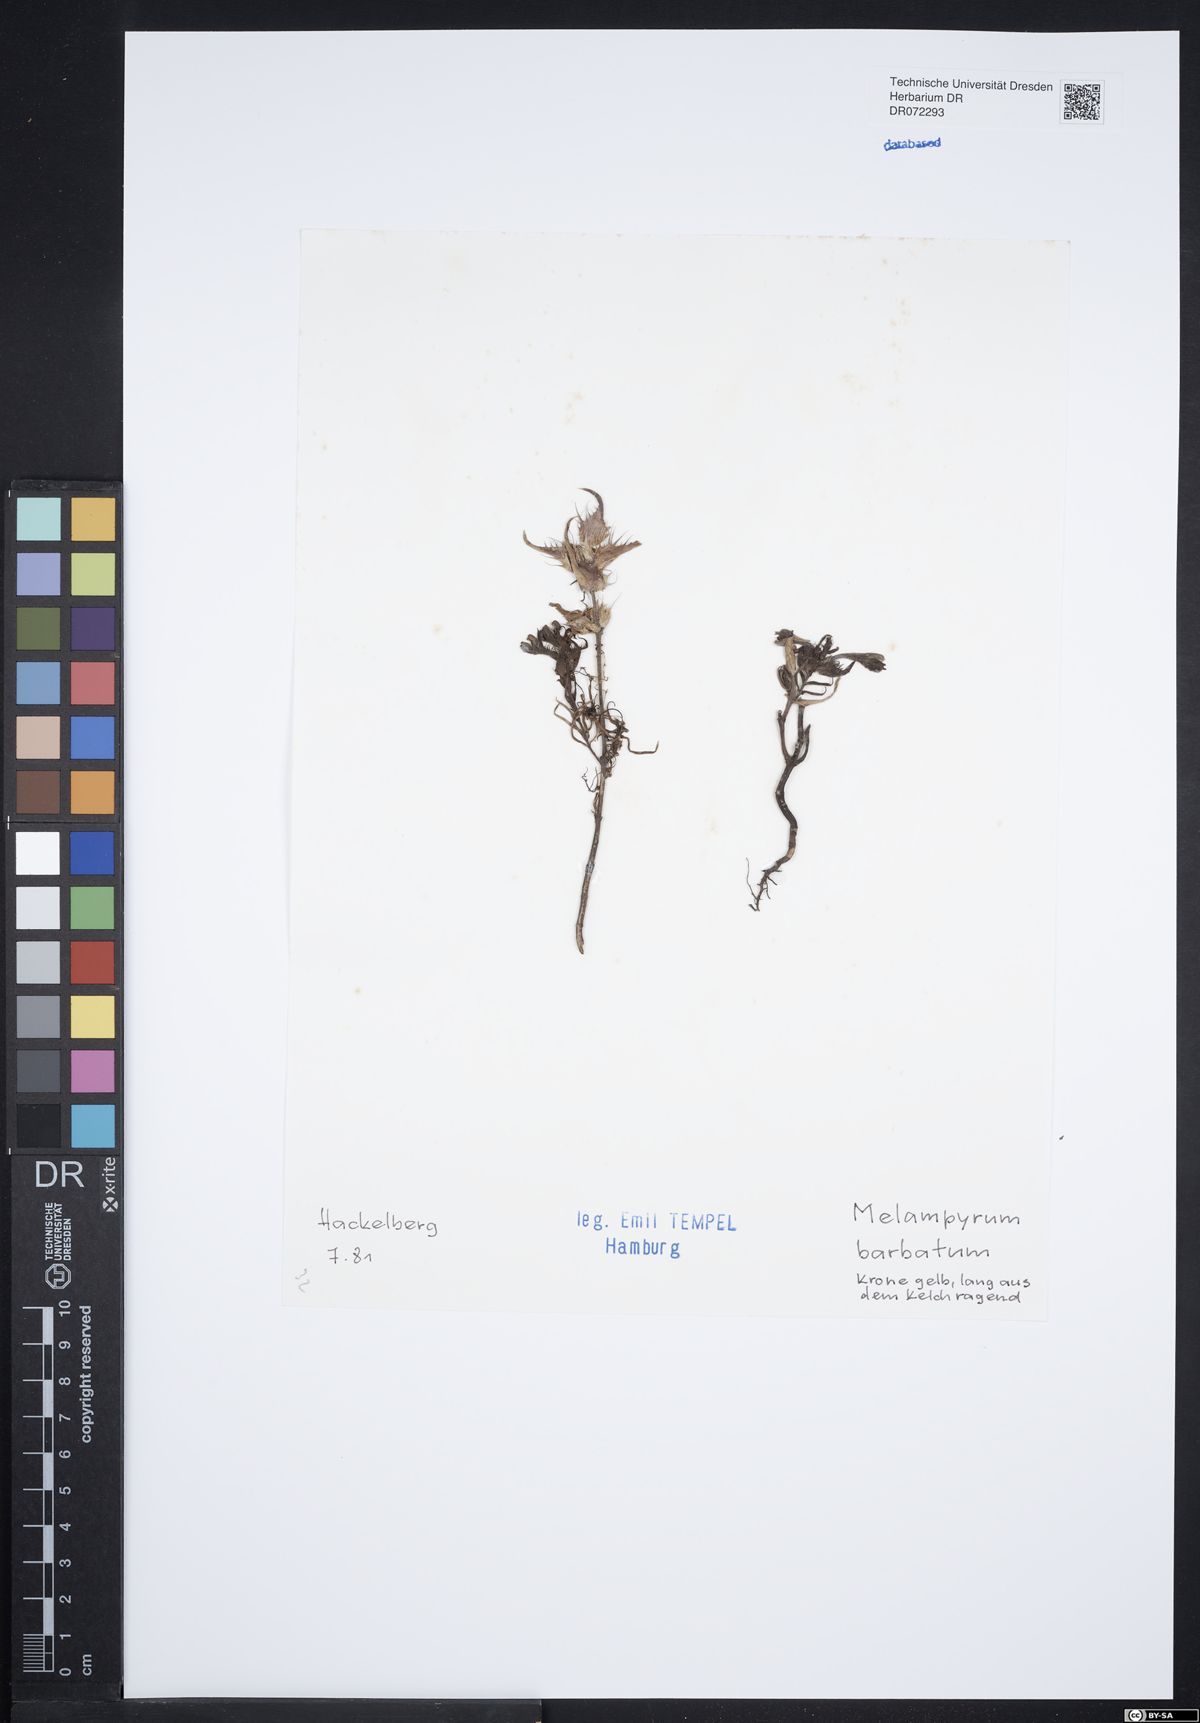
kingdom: Plantae
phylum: Tracheophyta
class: Magnoliopsida
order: Lamiales
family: Orobanchaceae
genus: Melampyrum
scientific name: Melampyrum barbatum
